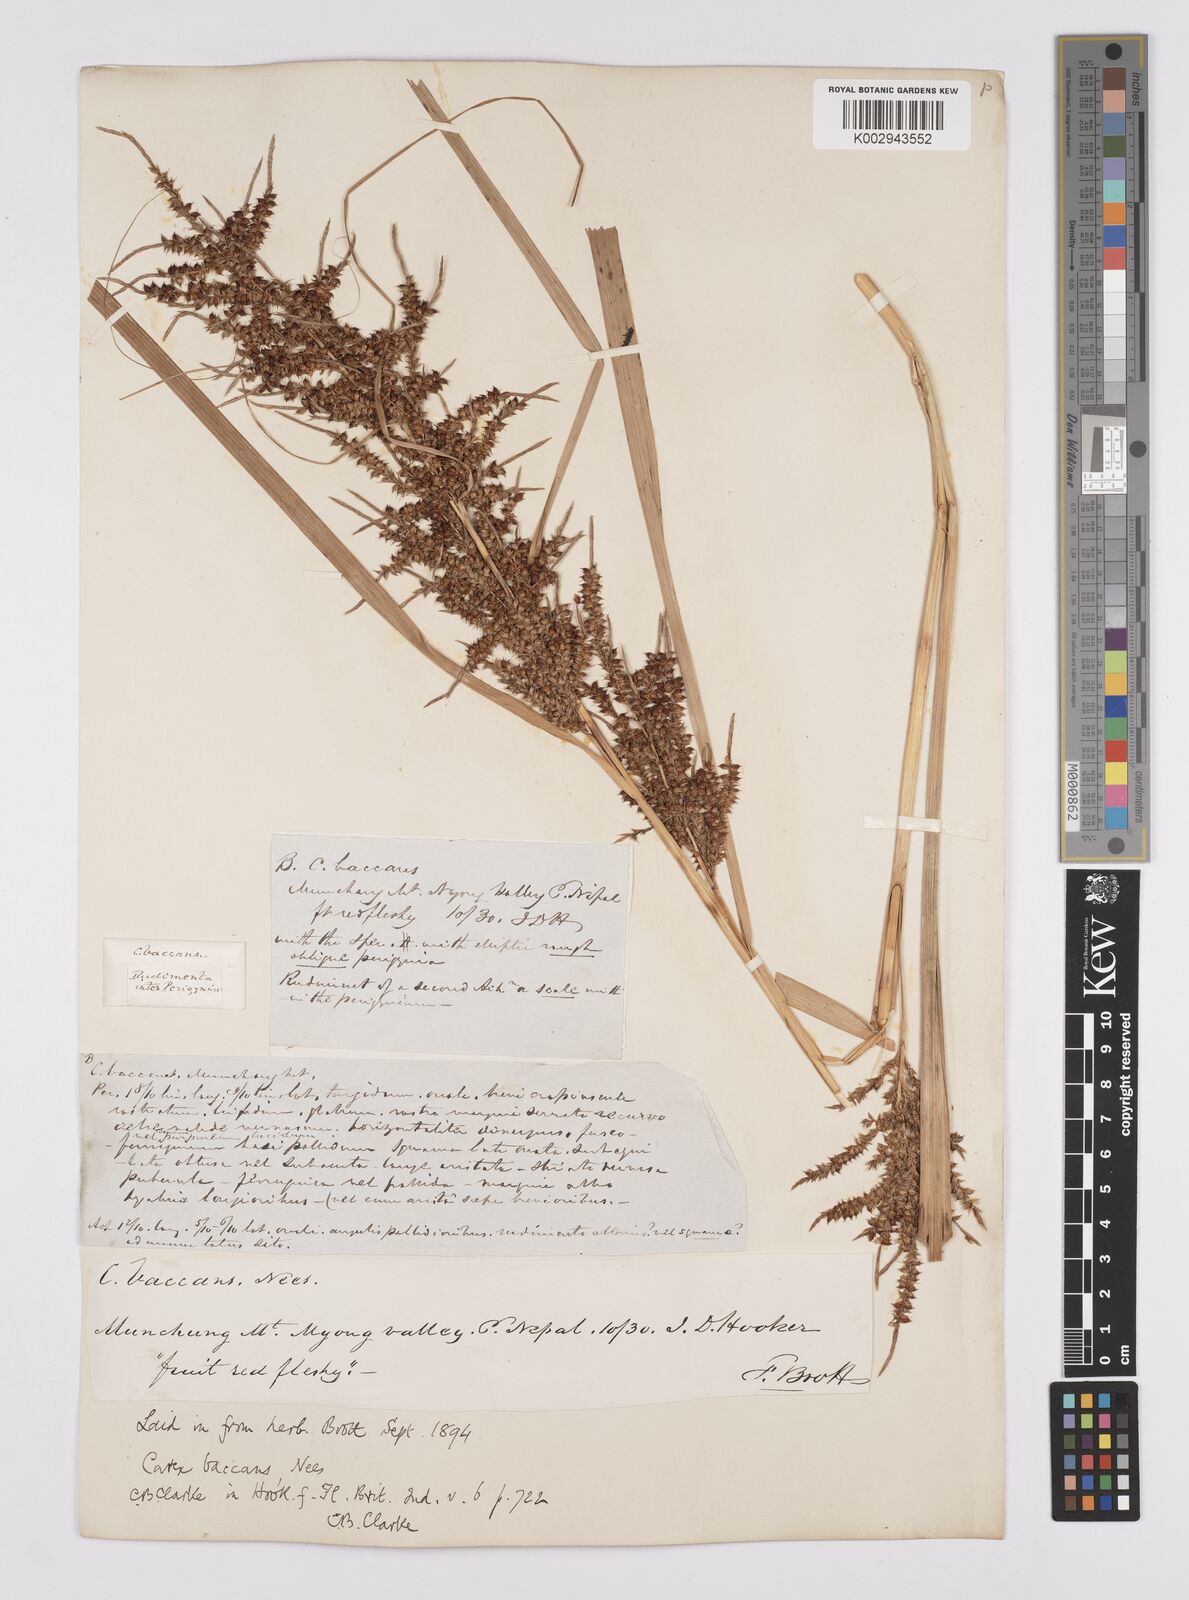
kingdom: Plantae
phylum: Tracheophyta
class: Liliopsida
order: Poales
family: Cyperaceae
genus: Carex
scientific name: Carex baccans
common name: Crimson seeded sedge
